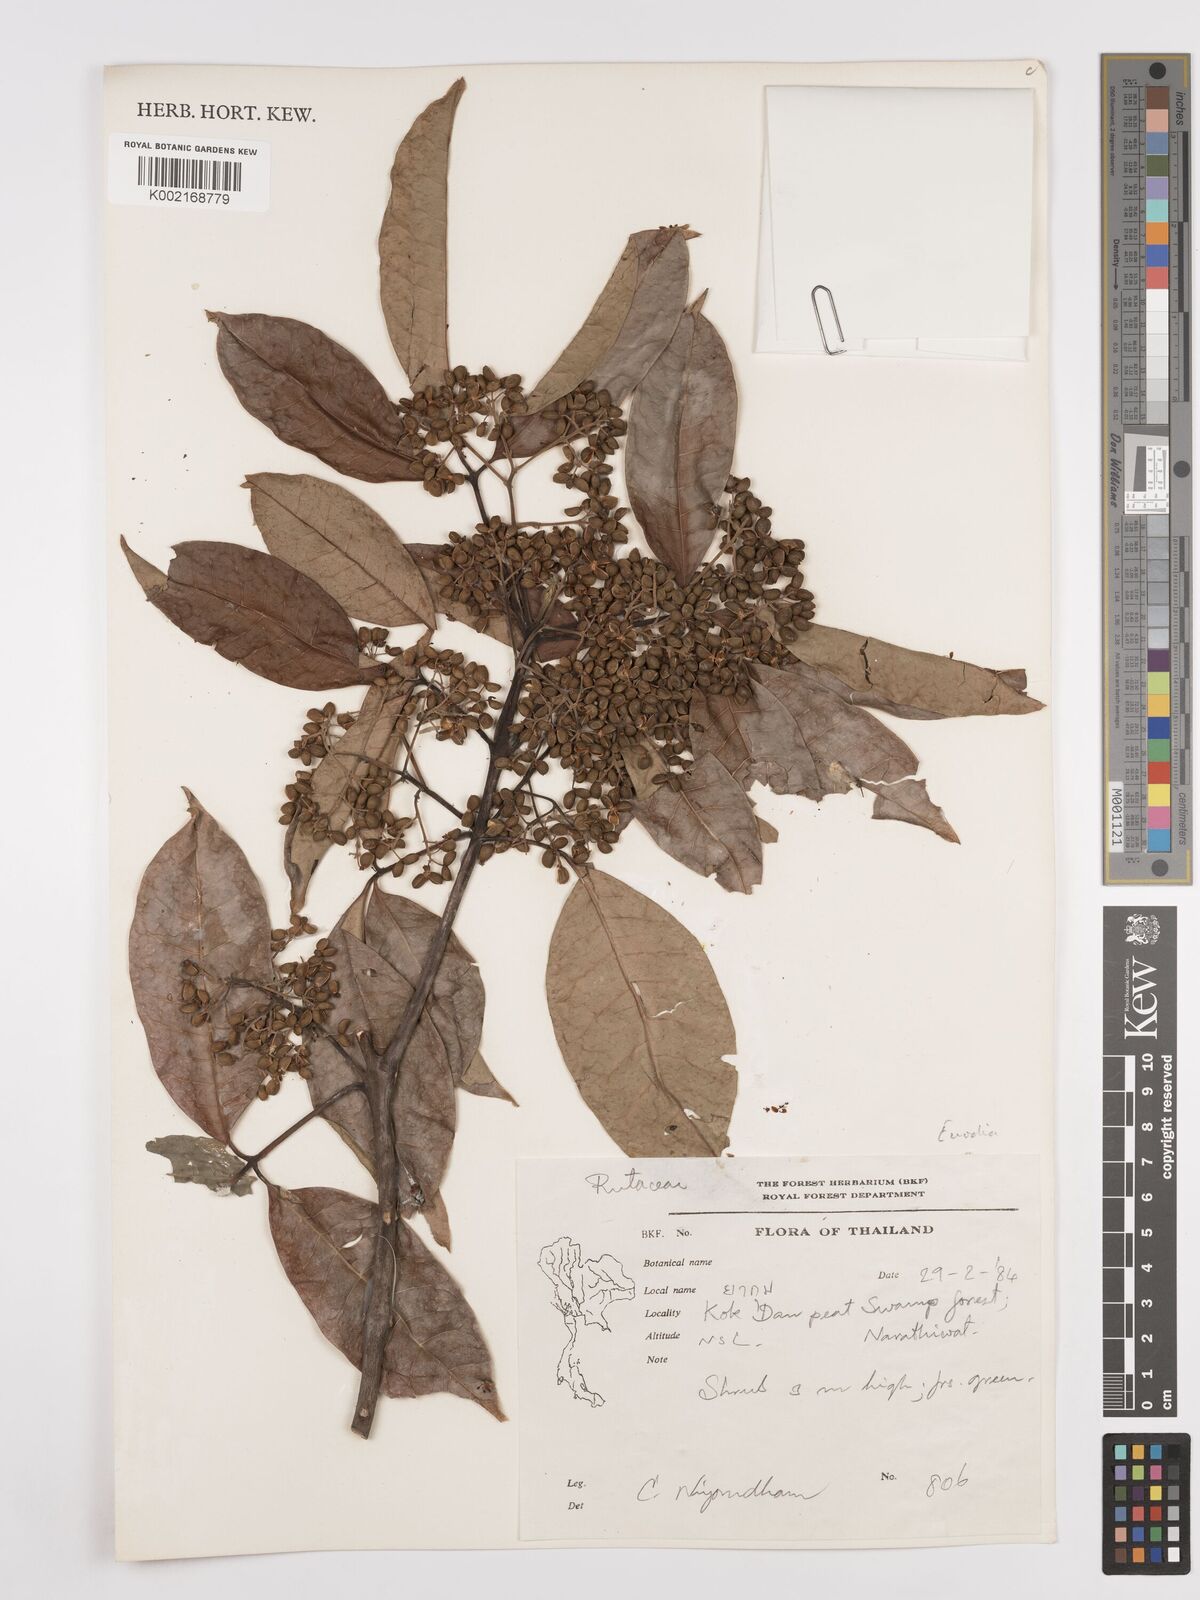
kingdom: Plantae
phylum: Tracheophyta
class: Magnoliopsida
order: Sapindales
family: Rutaceae
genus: Euodia
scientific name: Euodia
